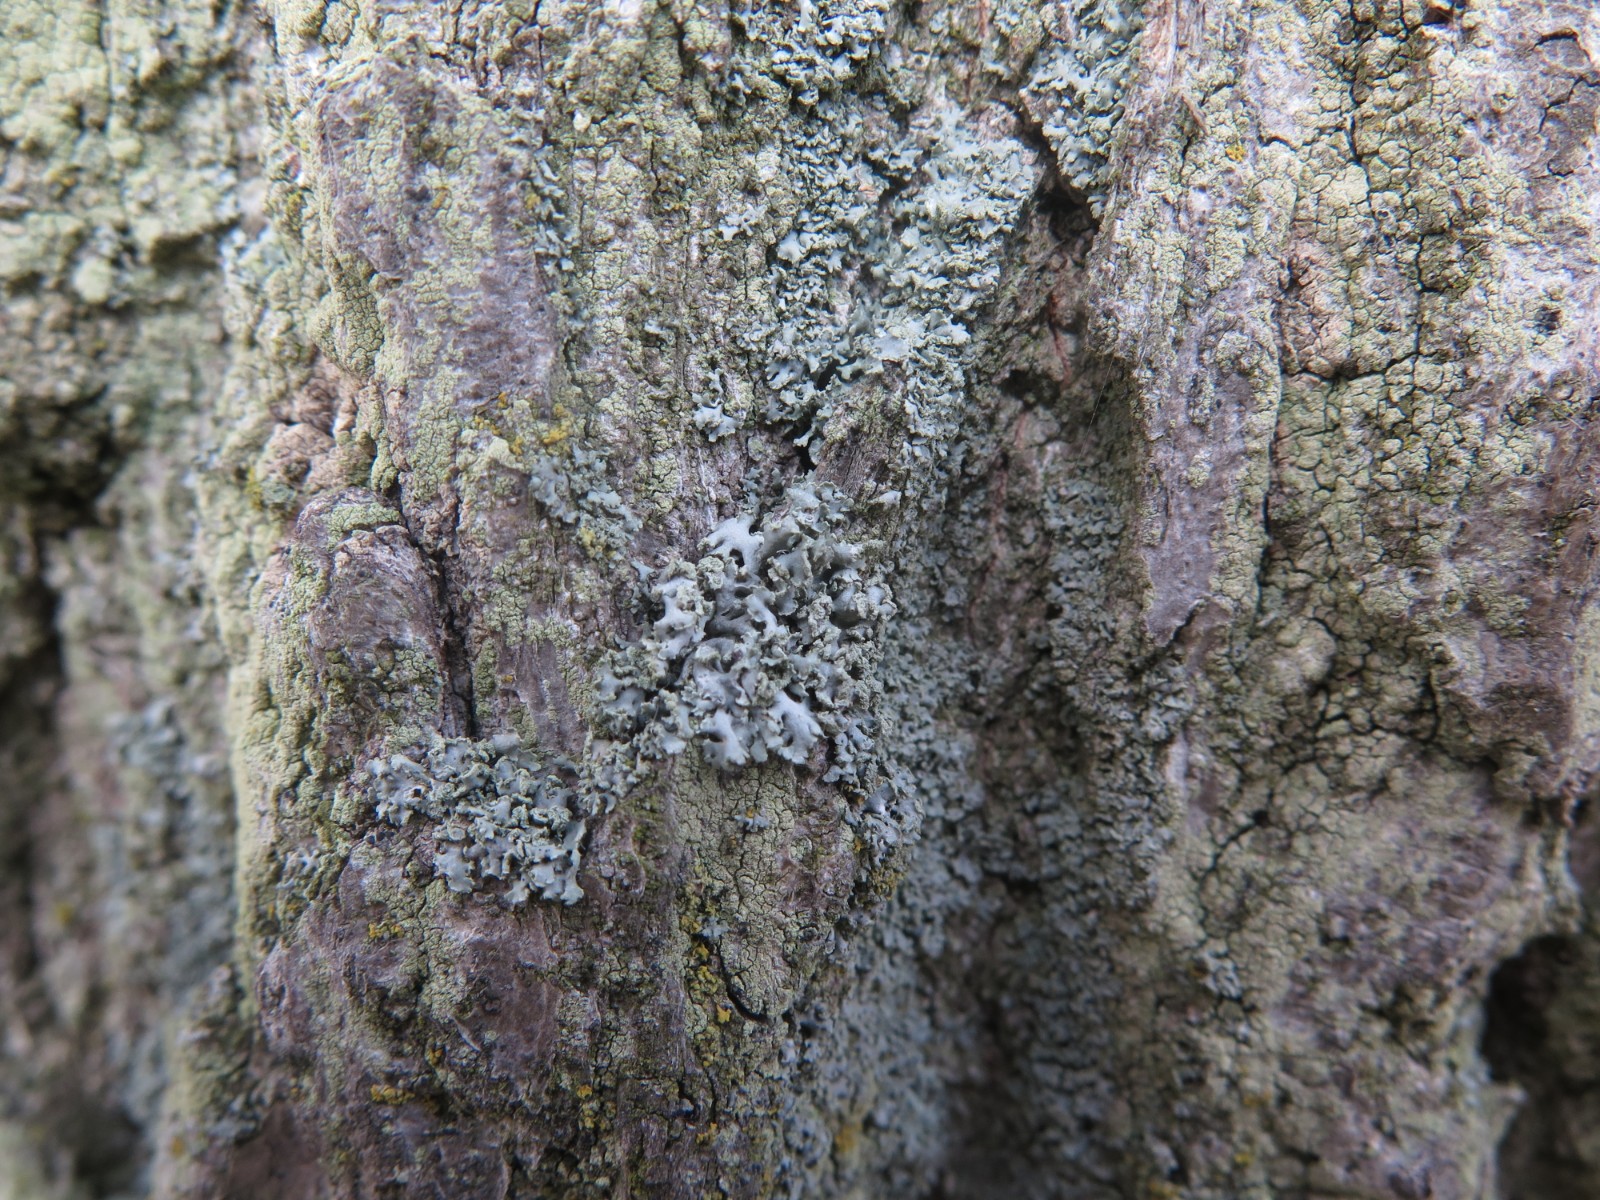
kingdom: Fungi
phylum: Ascomycota
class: Lecanoromycetes
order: Lecanorales
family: Parmeliaceae
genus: Hypogymnia
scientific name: Hypogymnia physodes
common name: almindelig kvistlav
